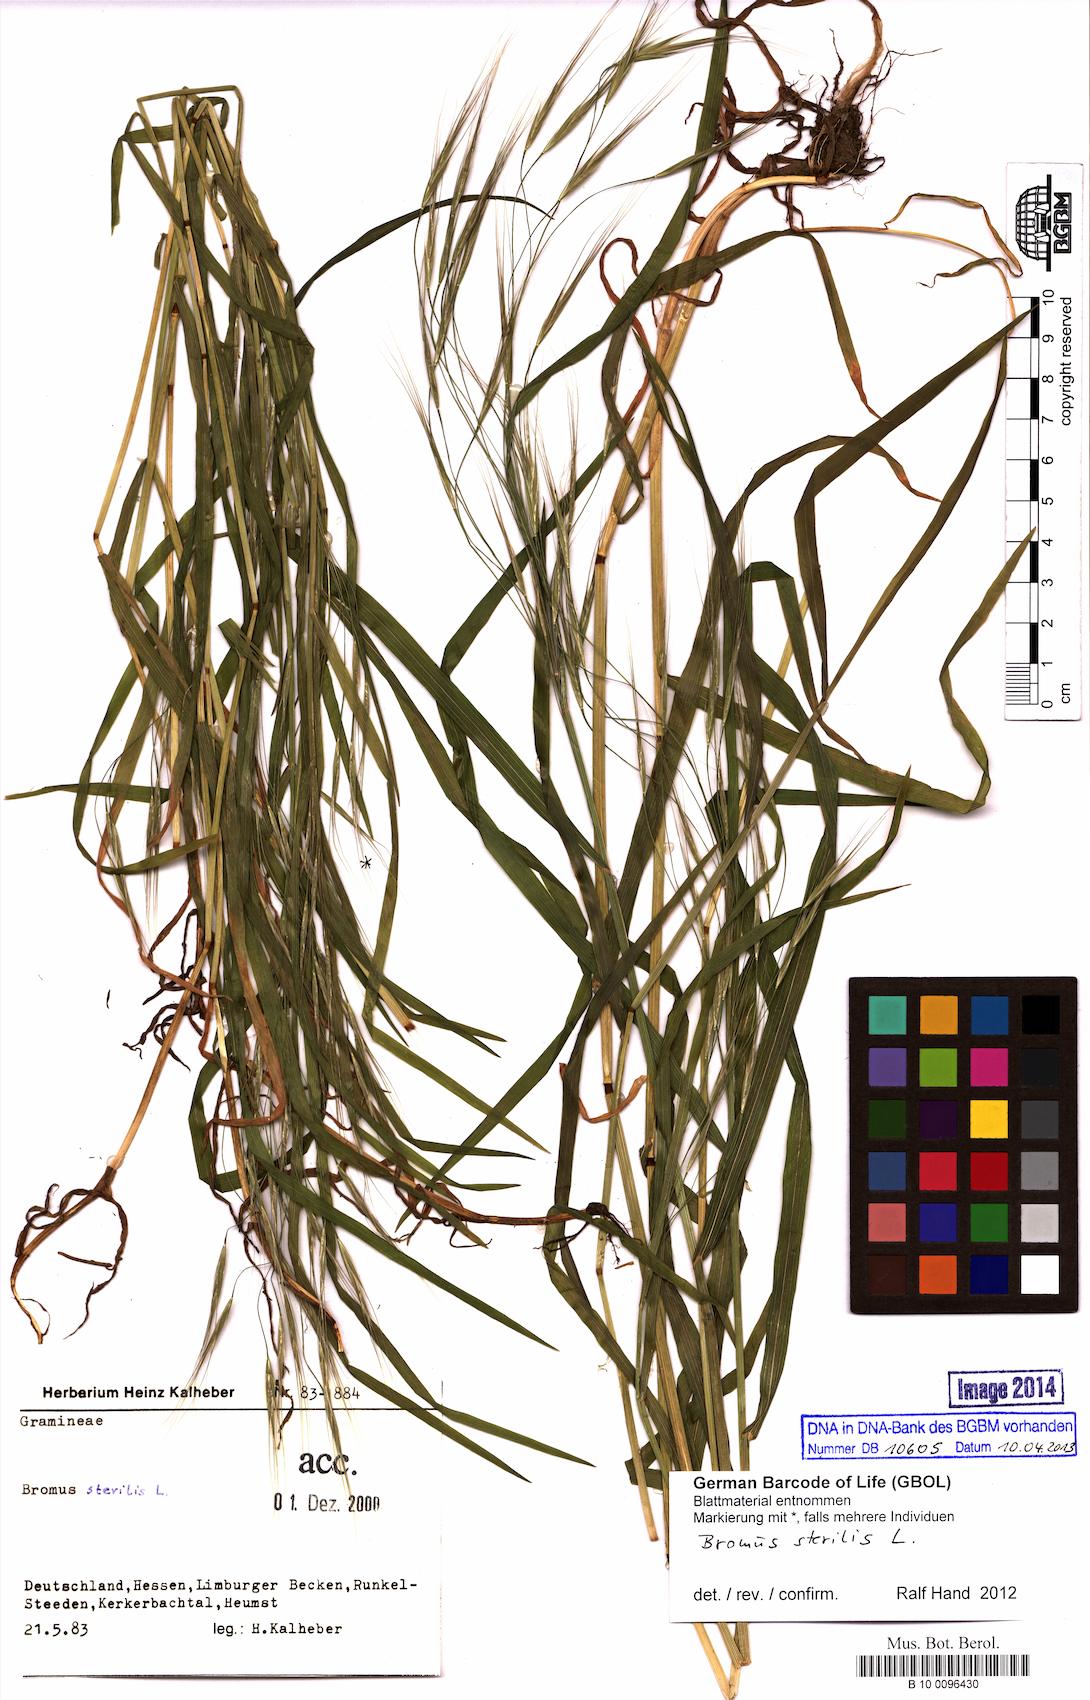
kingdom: Plantae
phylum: Tracheophyta
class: Liliopsida
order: Poales
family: Poaceae
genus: Bromus
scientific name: Bromus sterilis
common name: Poverty brome
